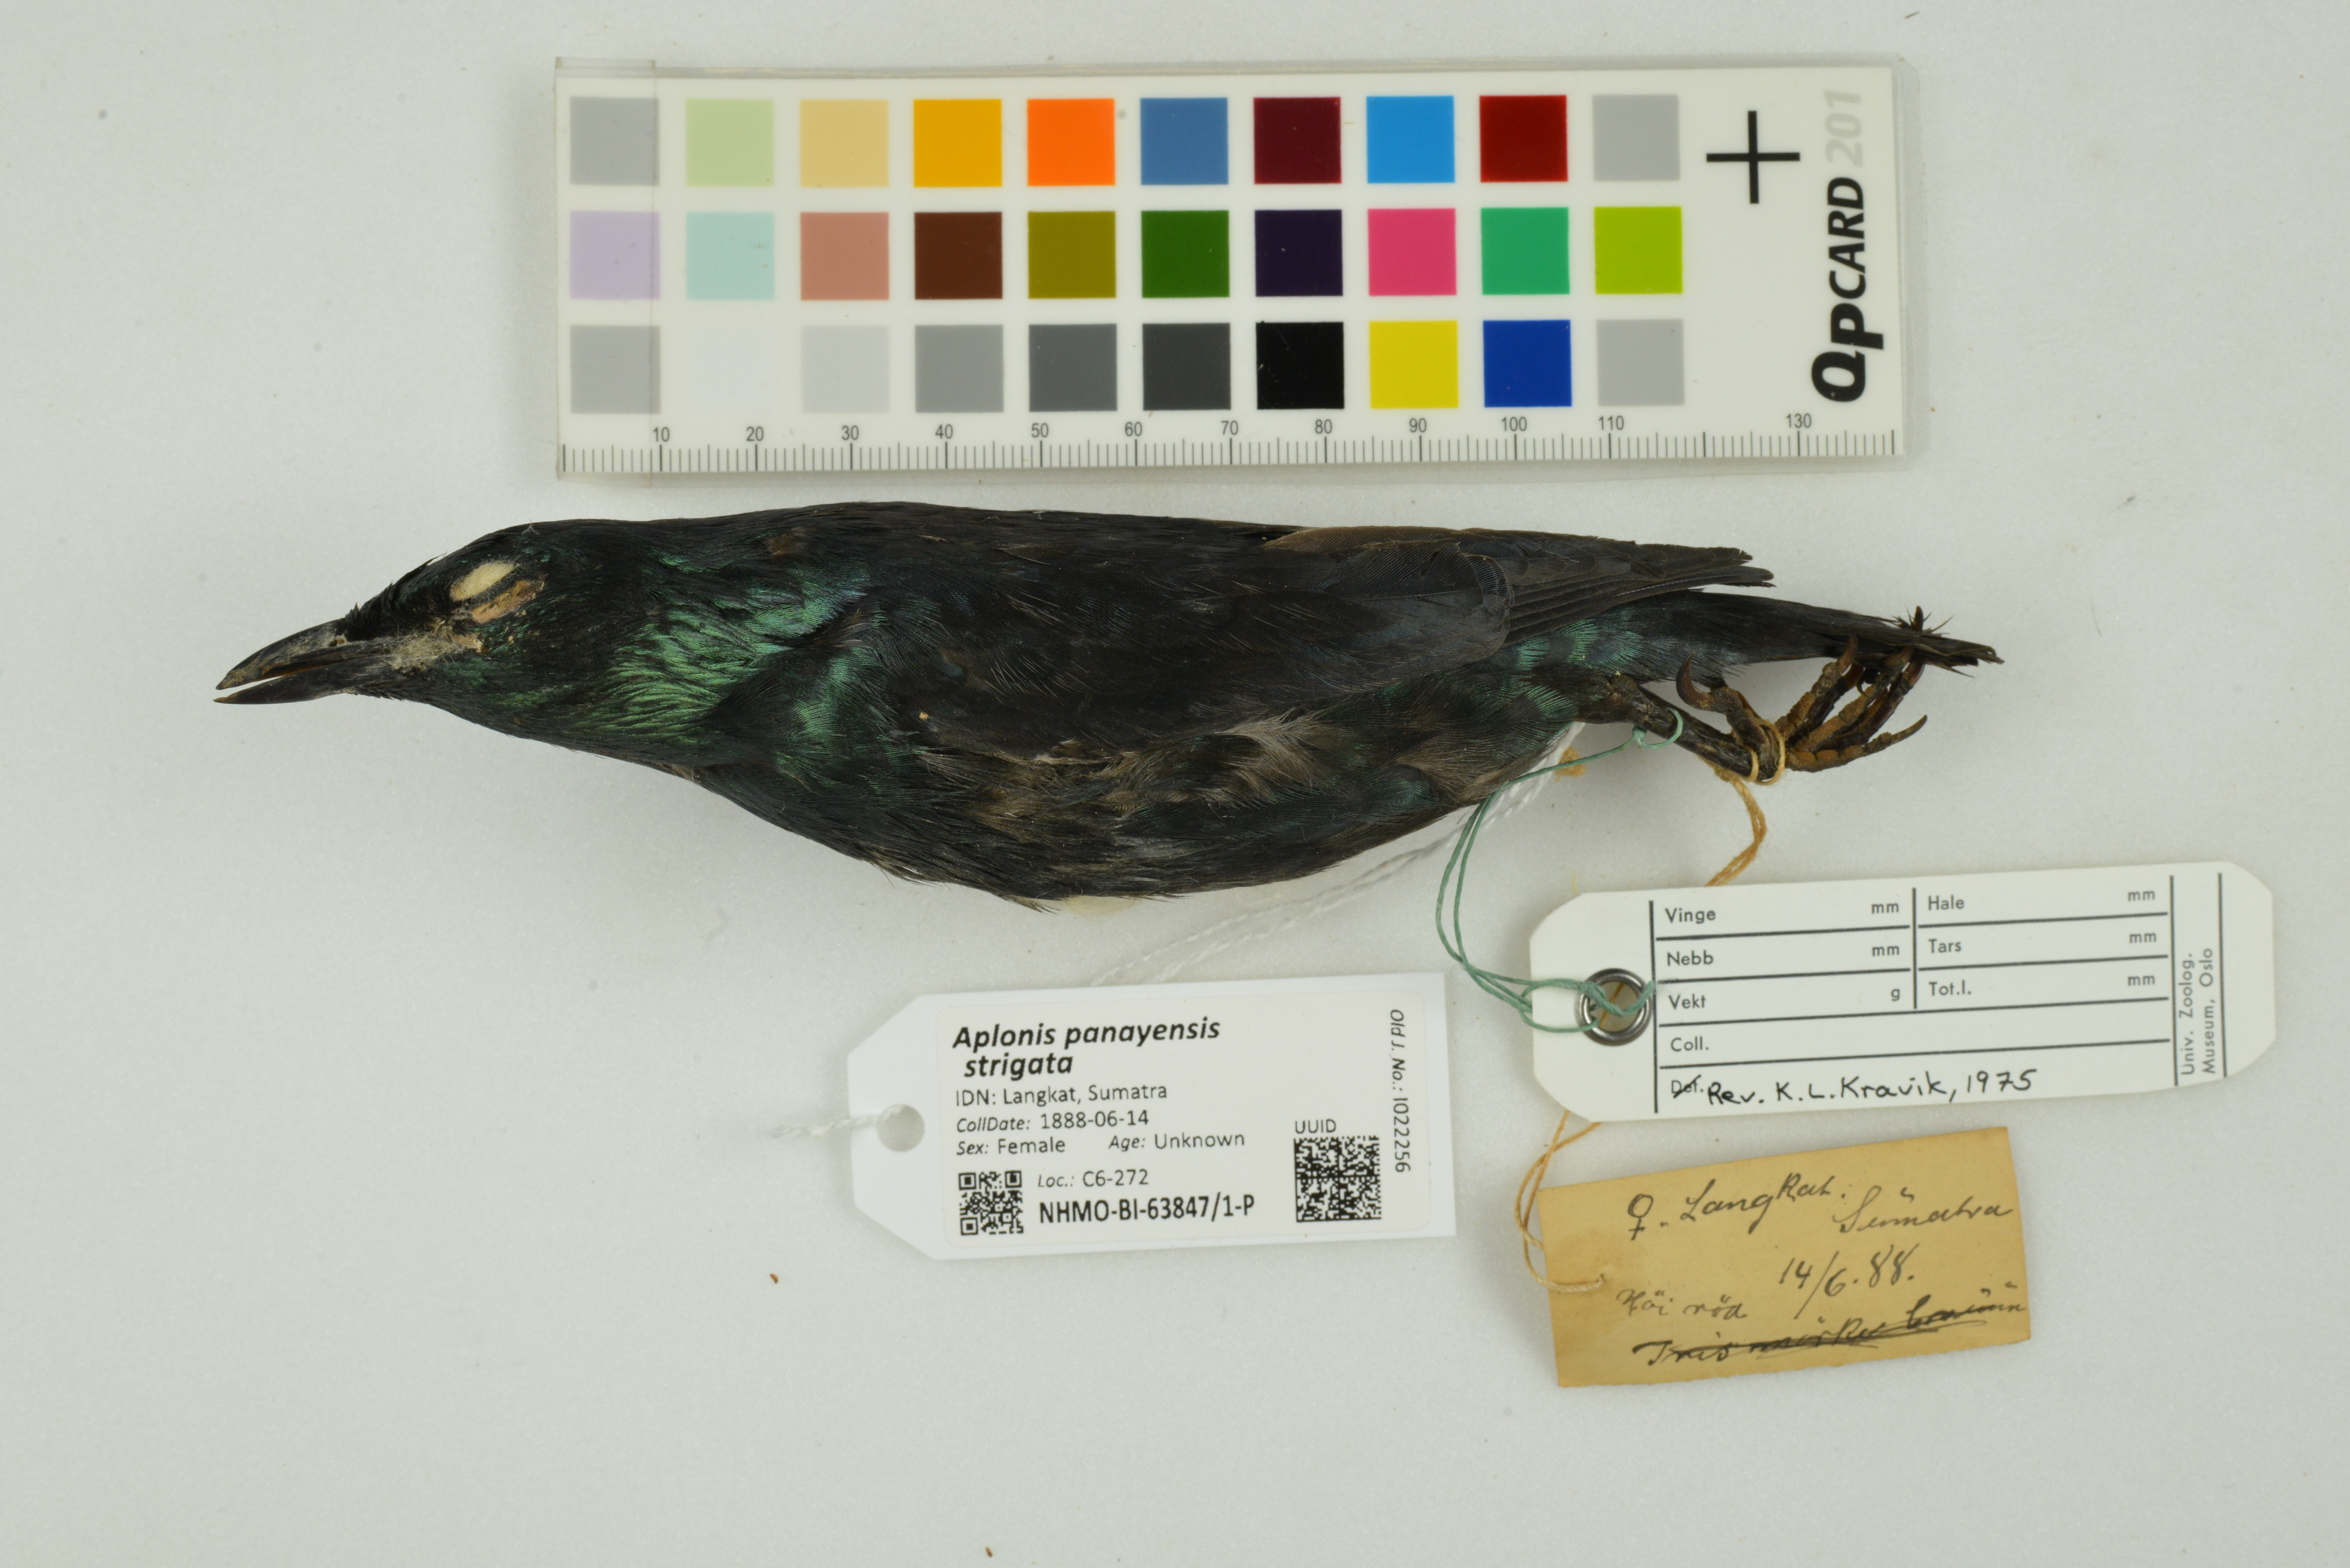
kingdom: Animalia
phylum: Chordata
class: Aves
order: Passeriformes
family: Sturnidae
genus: Aplonis
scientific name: Aplonis panayensis
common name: Asian glossy starling
